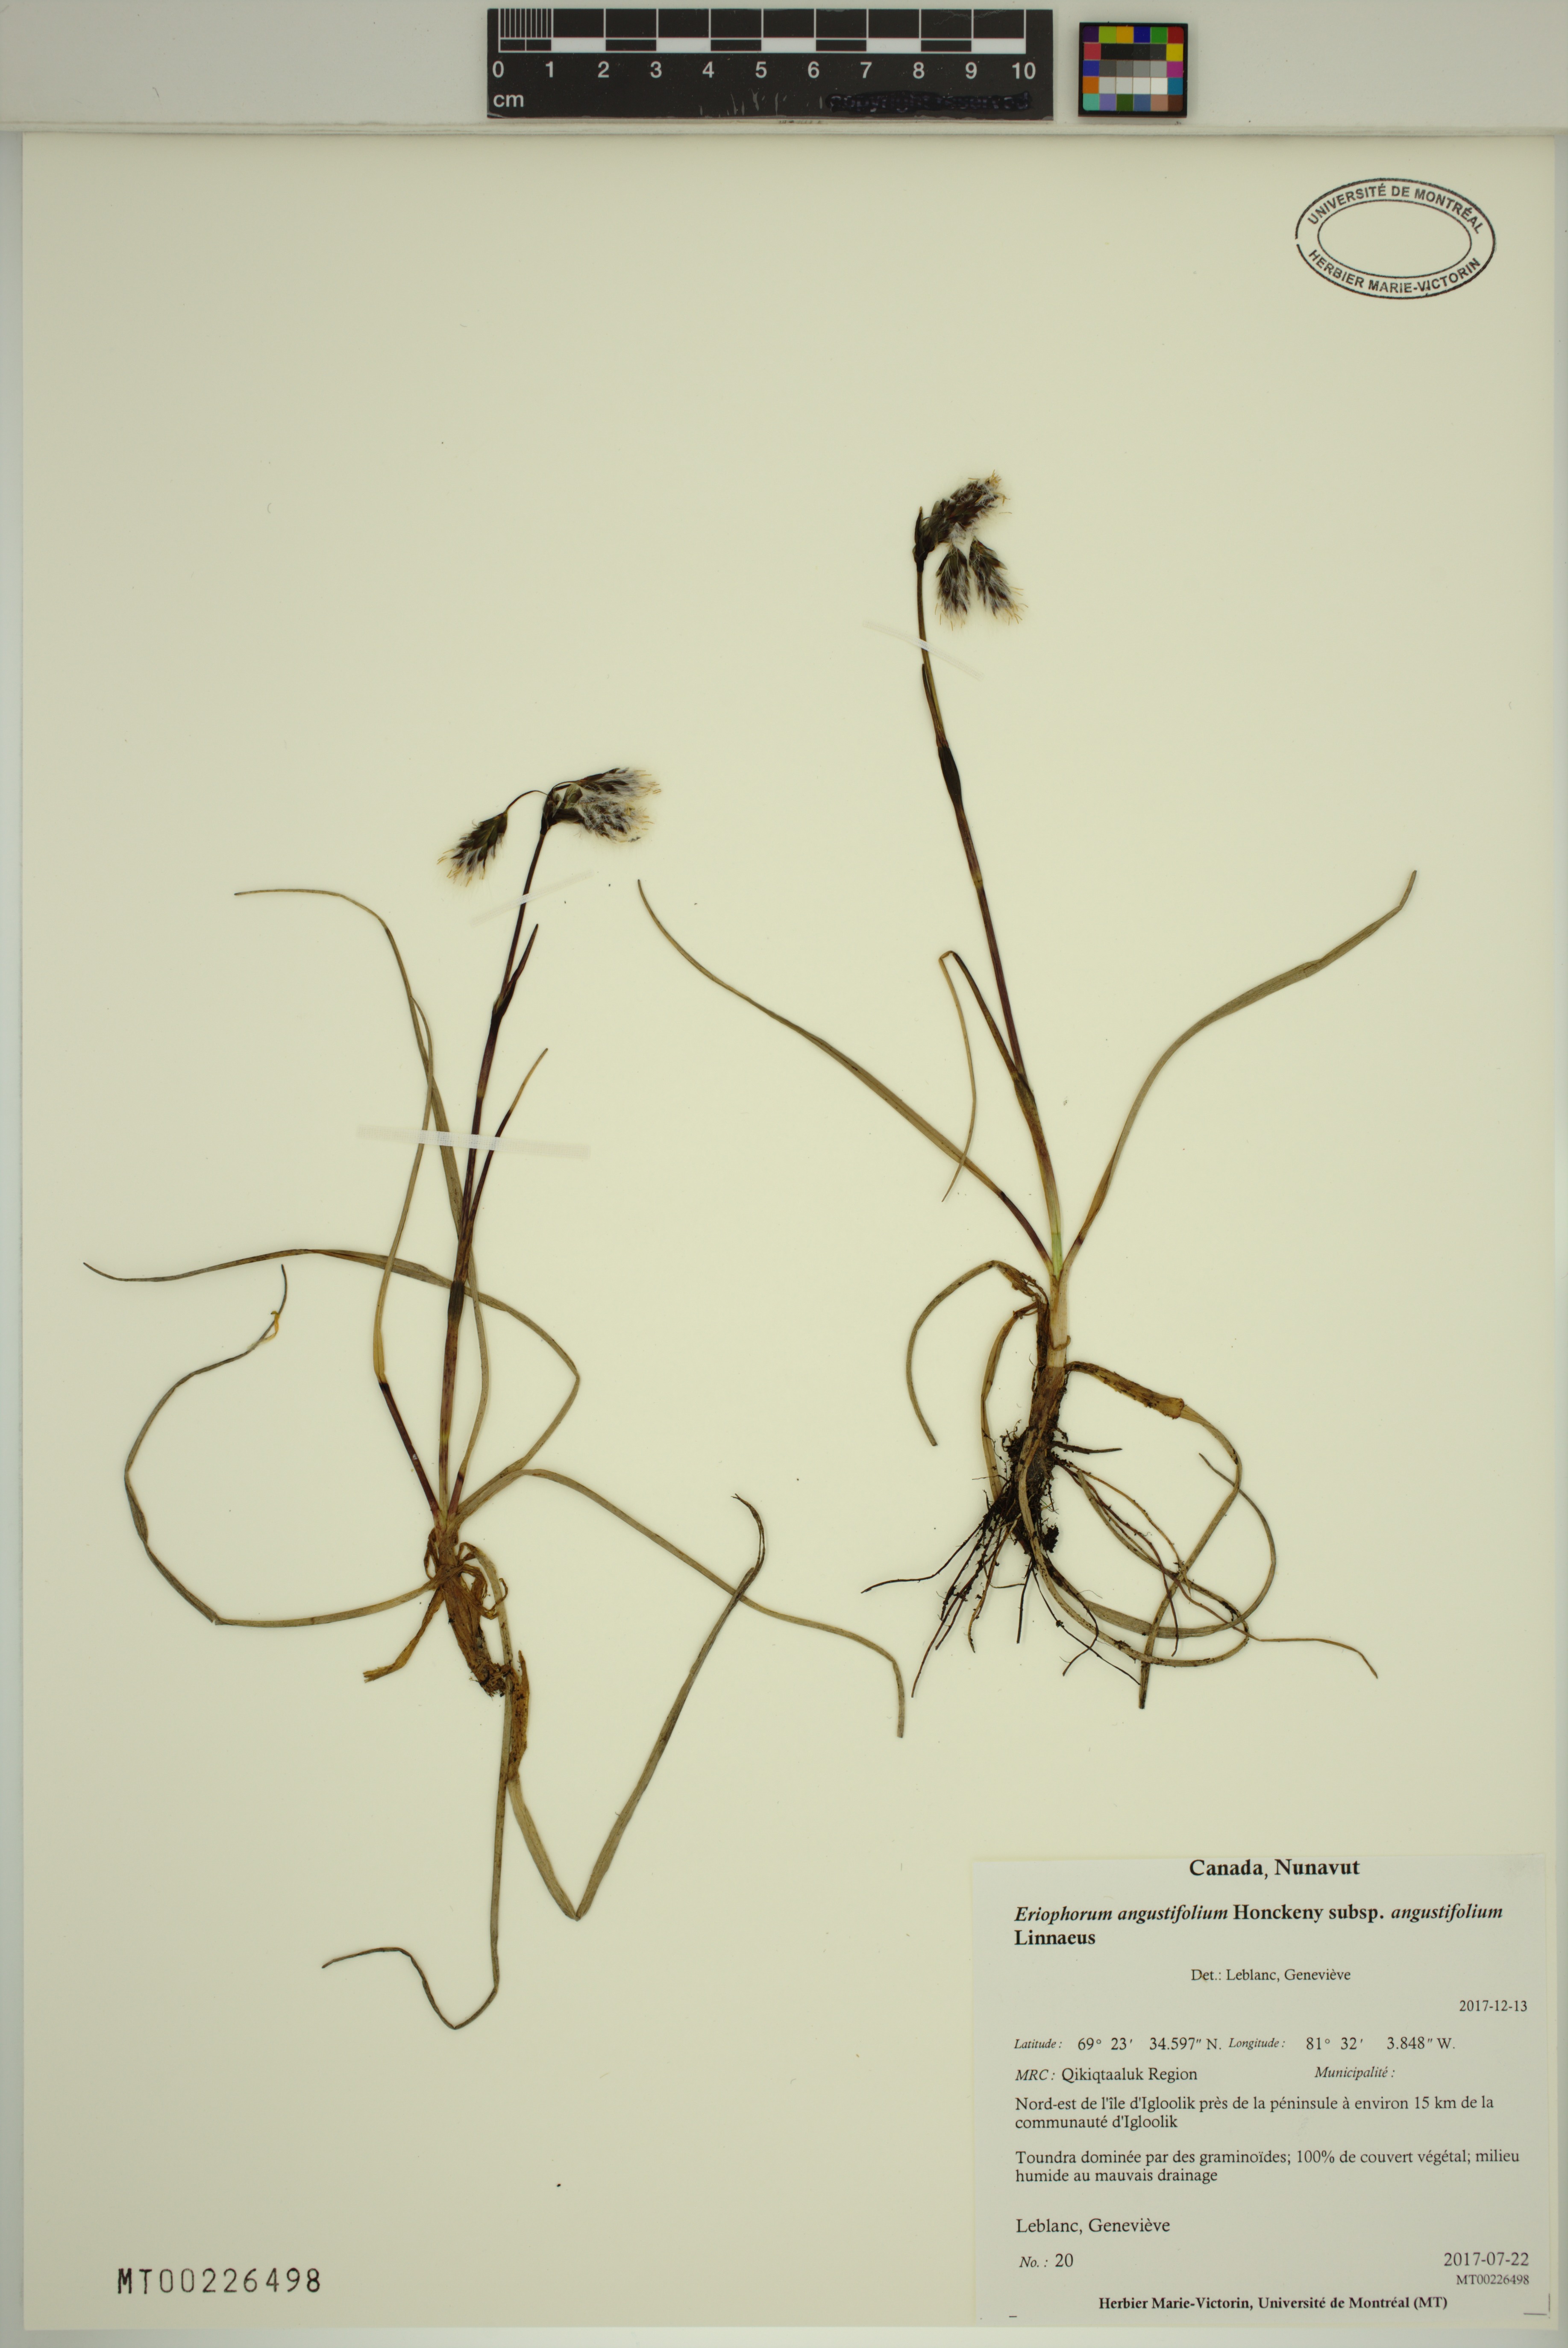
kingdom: Plantae
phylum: Tracheophyta
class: Liliopsida
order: Poales
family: Cyperaceae
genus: Eriophorum
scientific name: Eriophorum angustifolium
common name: Common cottongrass
